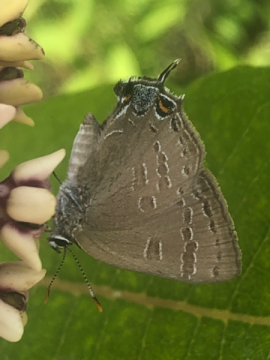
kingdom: Animalia
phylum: Arthropoda
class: Insecta
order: Lepidoptera
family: Lycaenidae
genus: Satyrium
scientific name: Satyrium calanus
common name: Banded Hairstreak
